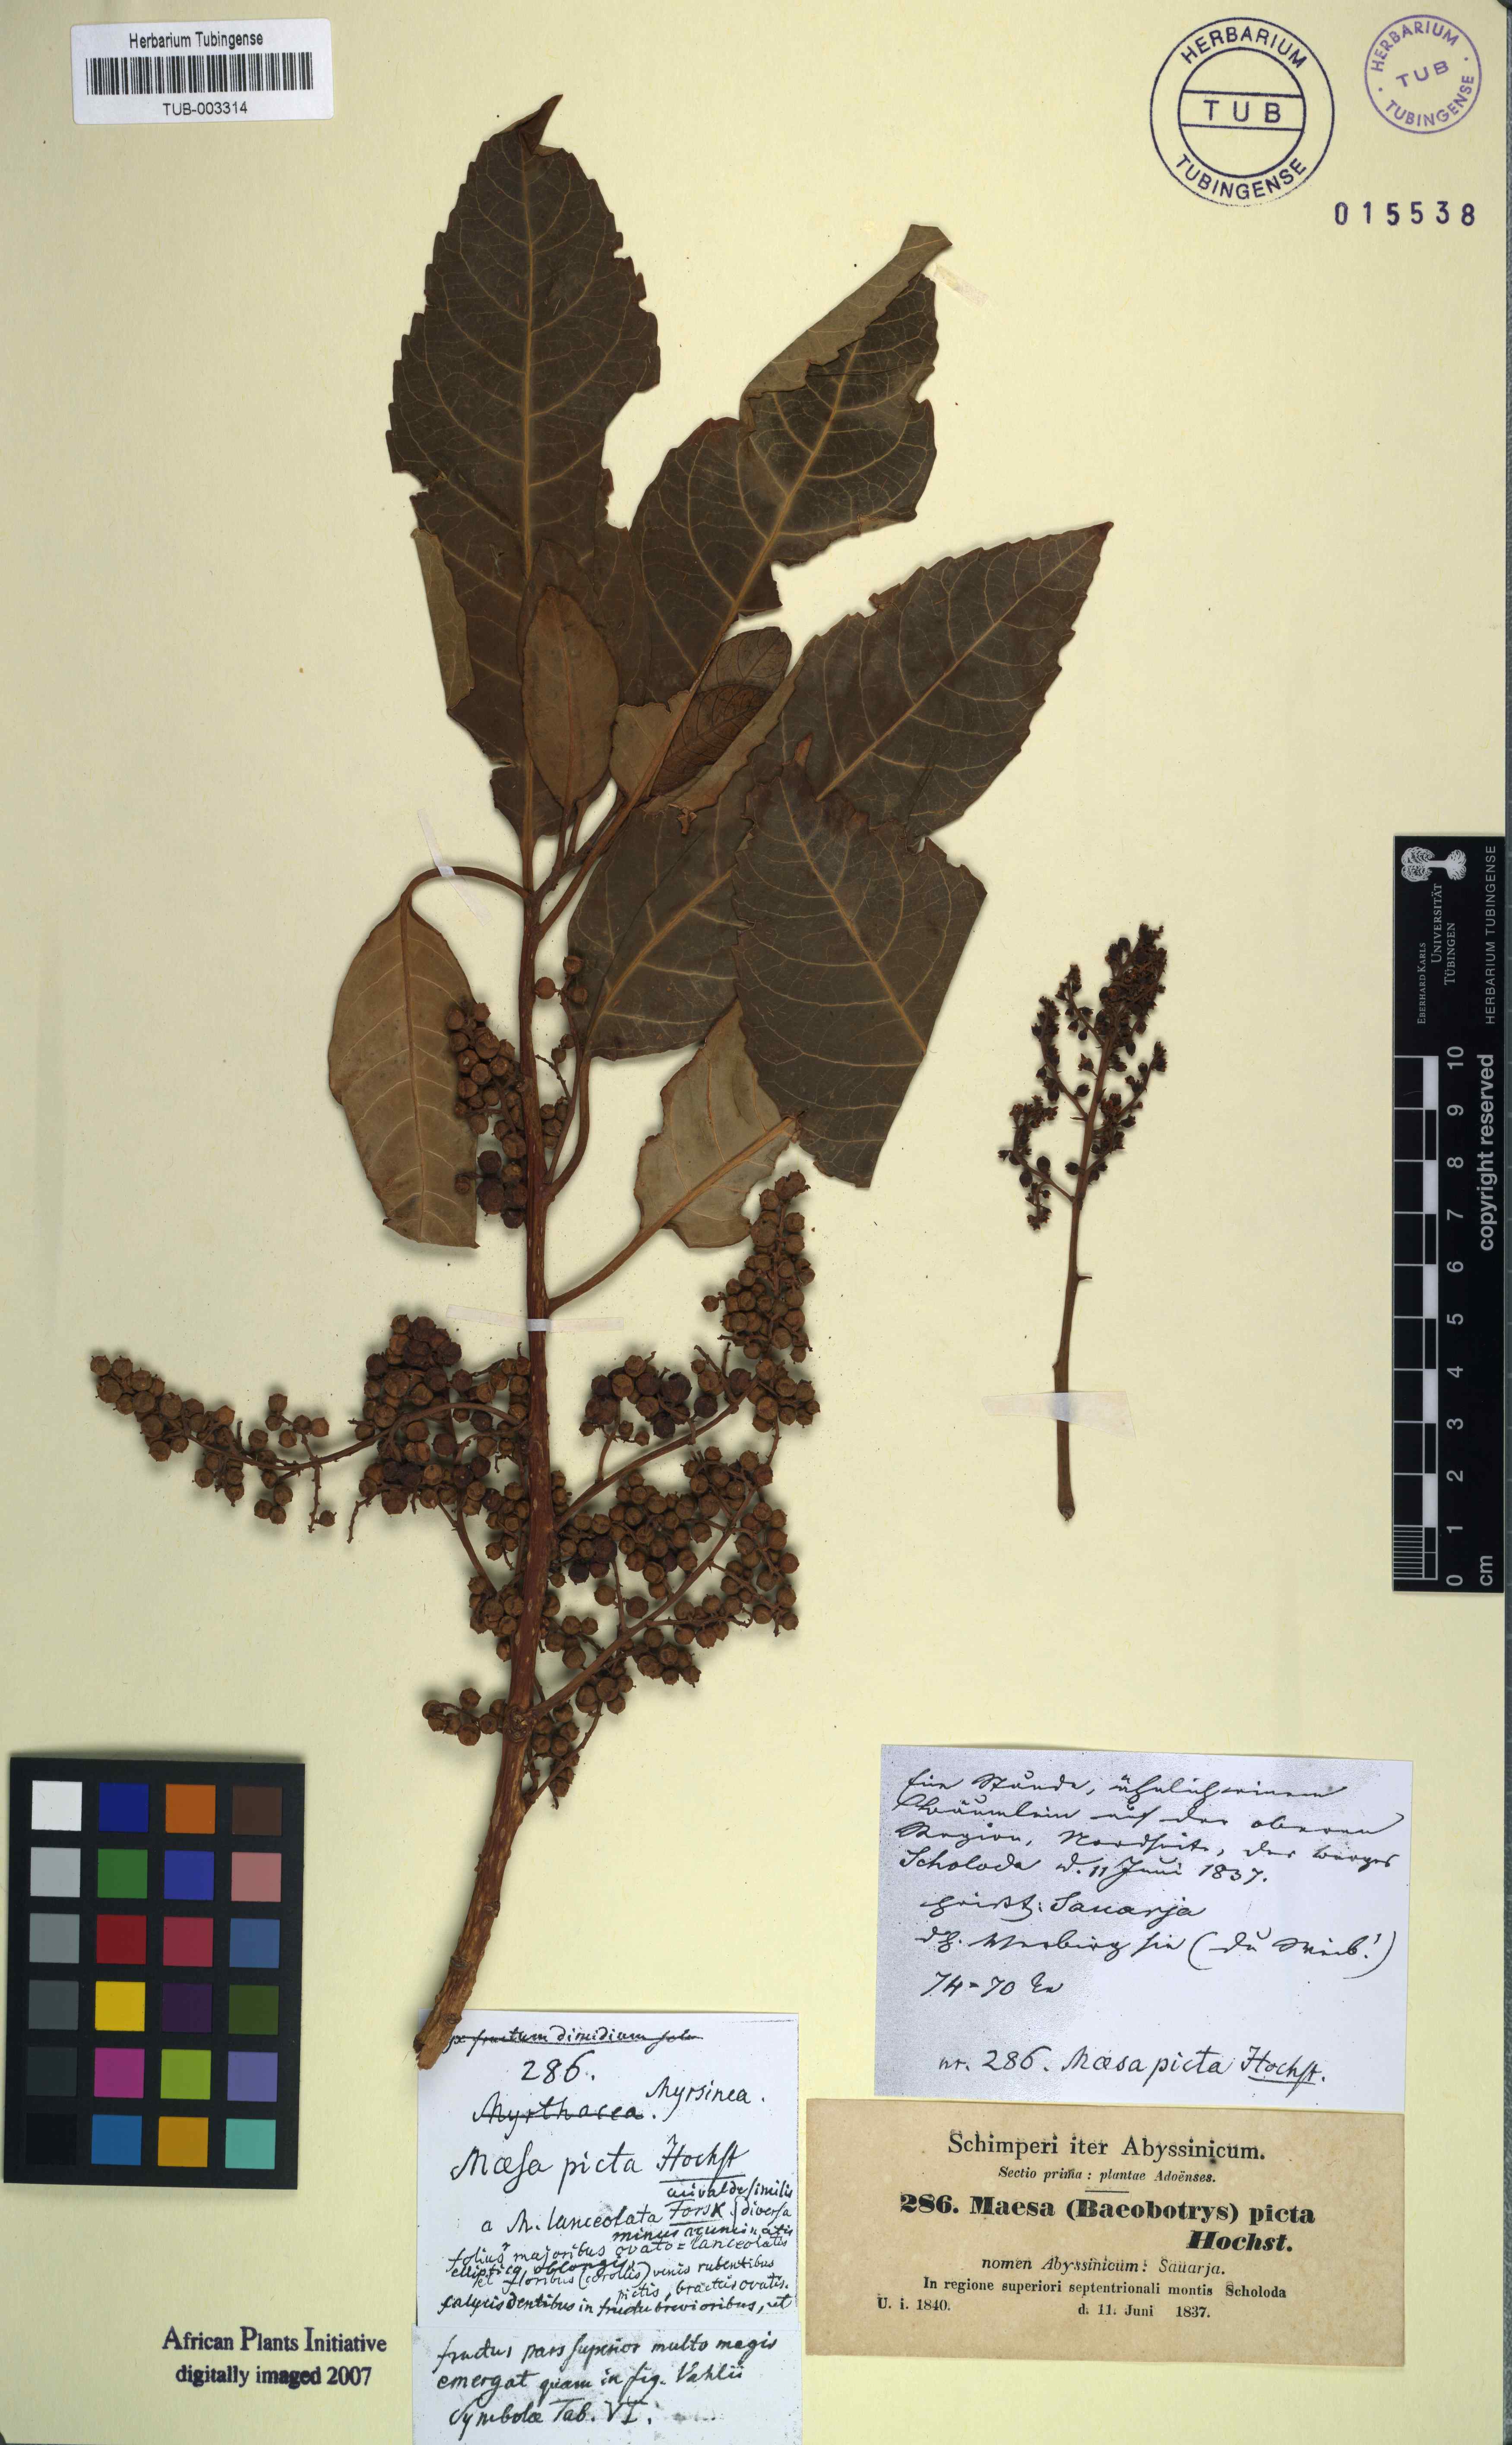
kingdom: Plantae
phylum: Tracheophyta
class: Magnoliopsida
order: Ericales
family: Primulaceae
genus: Maesa
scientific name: Maesa lanceolata
